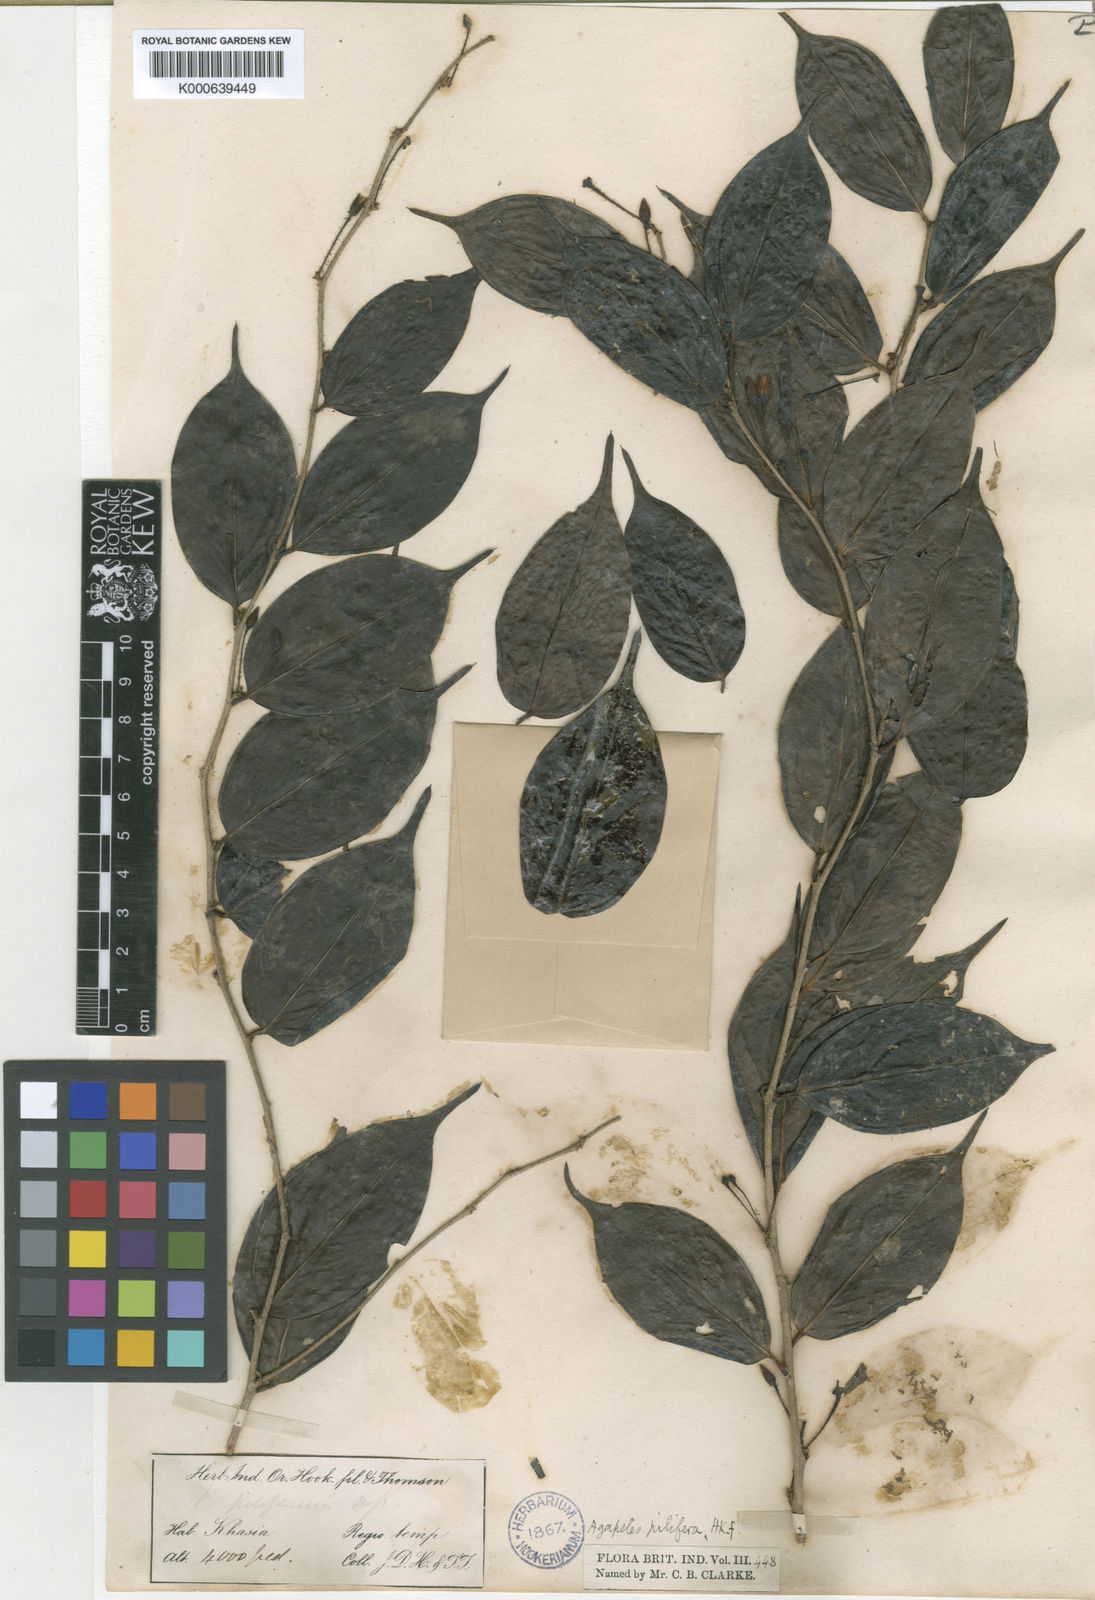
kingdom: Plantae
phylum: Tracheophyta
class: Magnoliopsida
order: Ericales
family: Ericaceae
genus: Vaccinium
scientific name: Vaccinium piliferum
